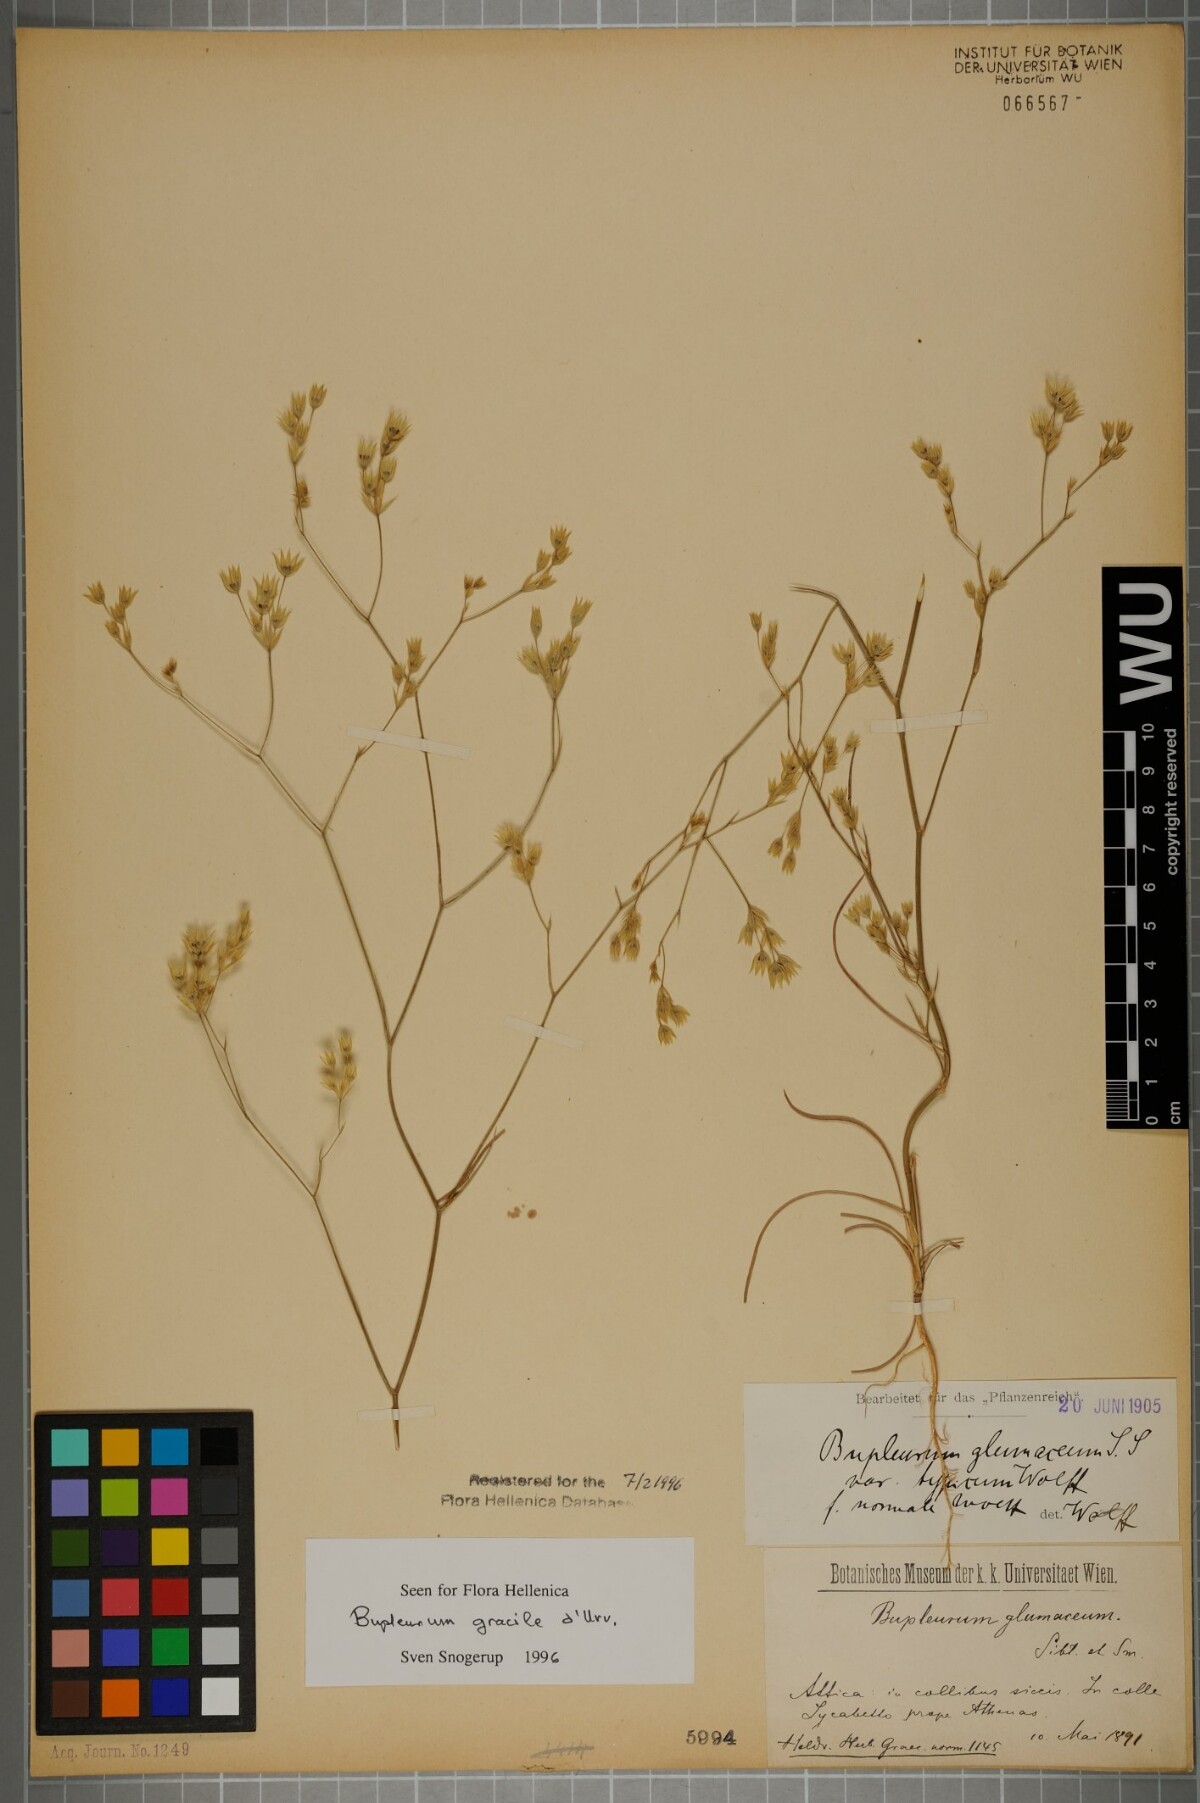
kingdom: Plantae
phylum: Tracheophyta
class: Magnoliopsida
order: Apiales
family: Apiaceae
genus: Bupleurum
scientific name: Bupleurum gracile
